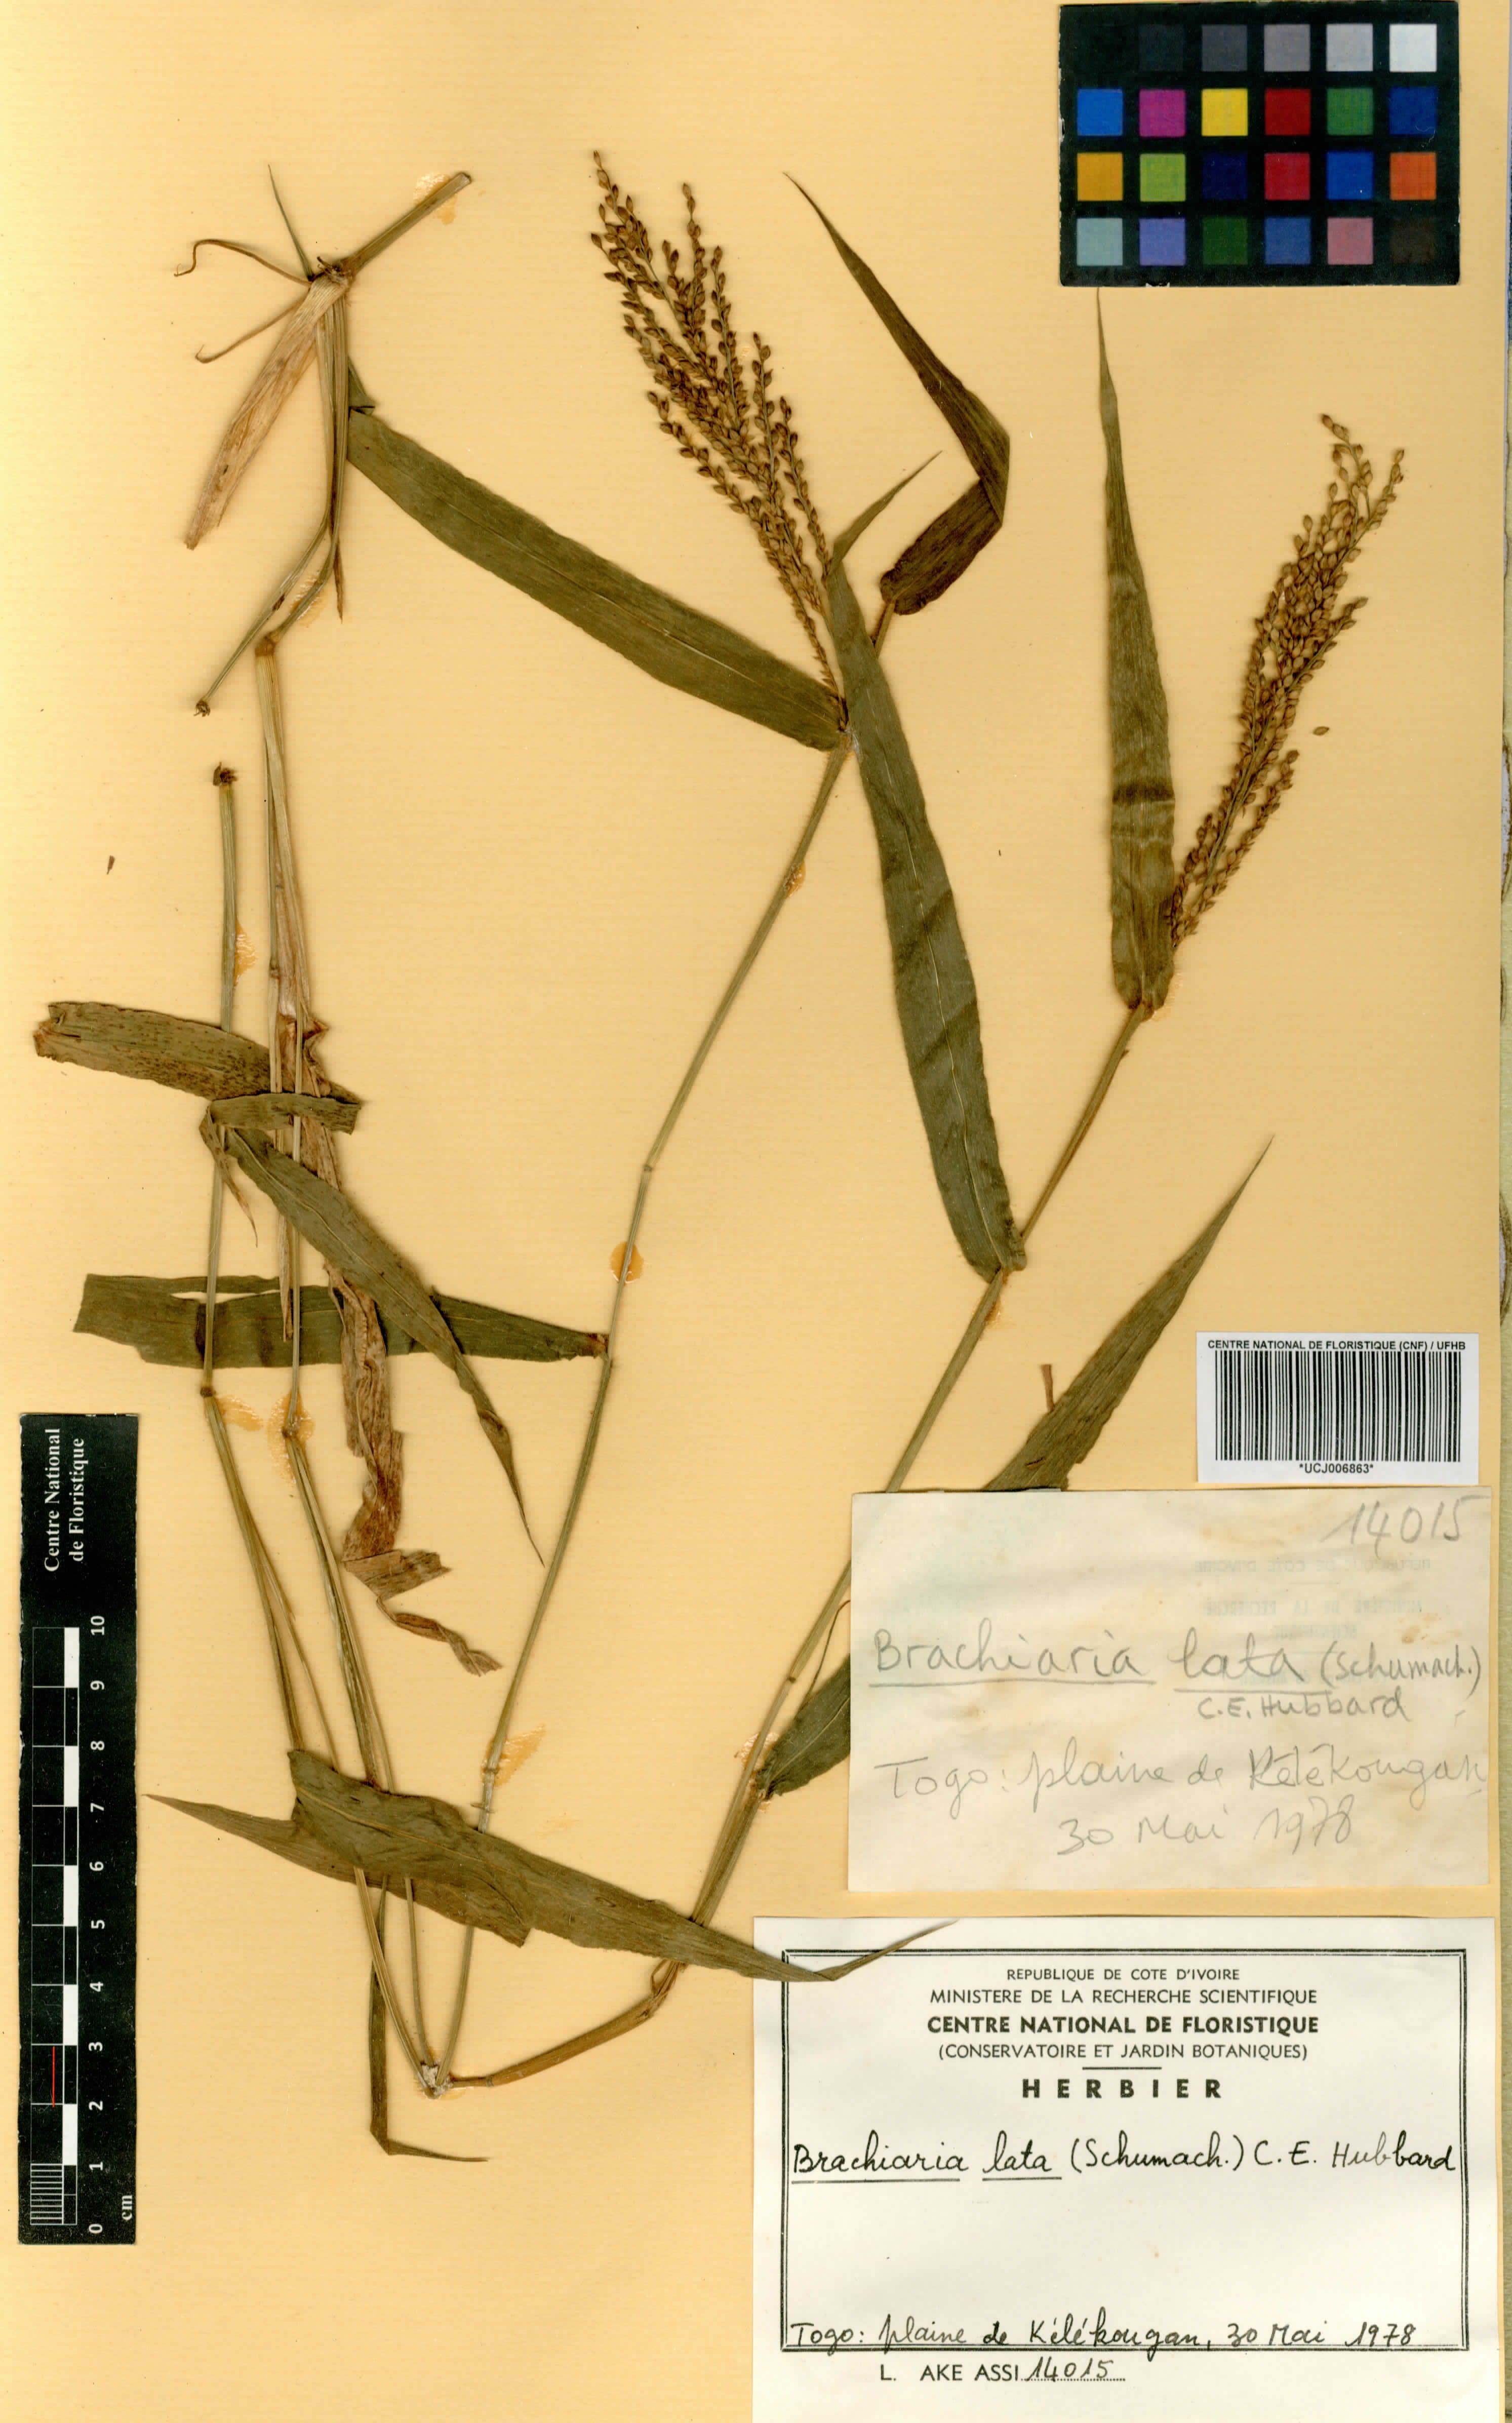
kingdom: Plantae
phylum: Tracheophyta
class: Liliopsida
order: Poales
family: Poaceae
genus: Urochloa
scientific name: Urochloa lata
